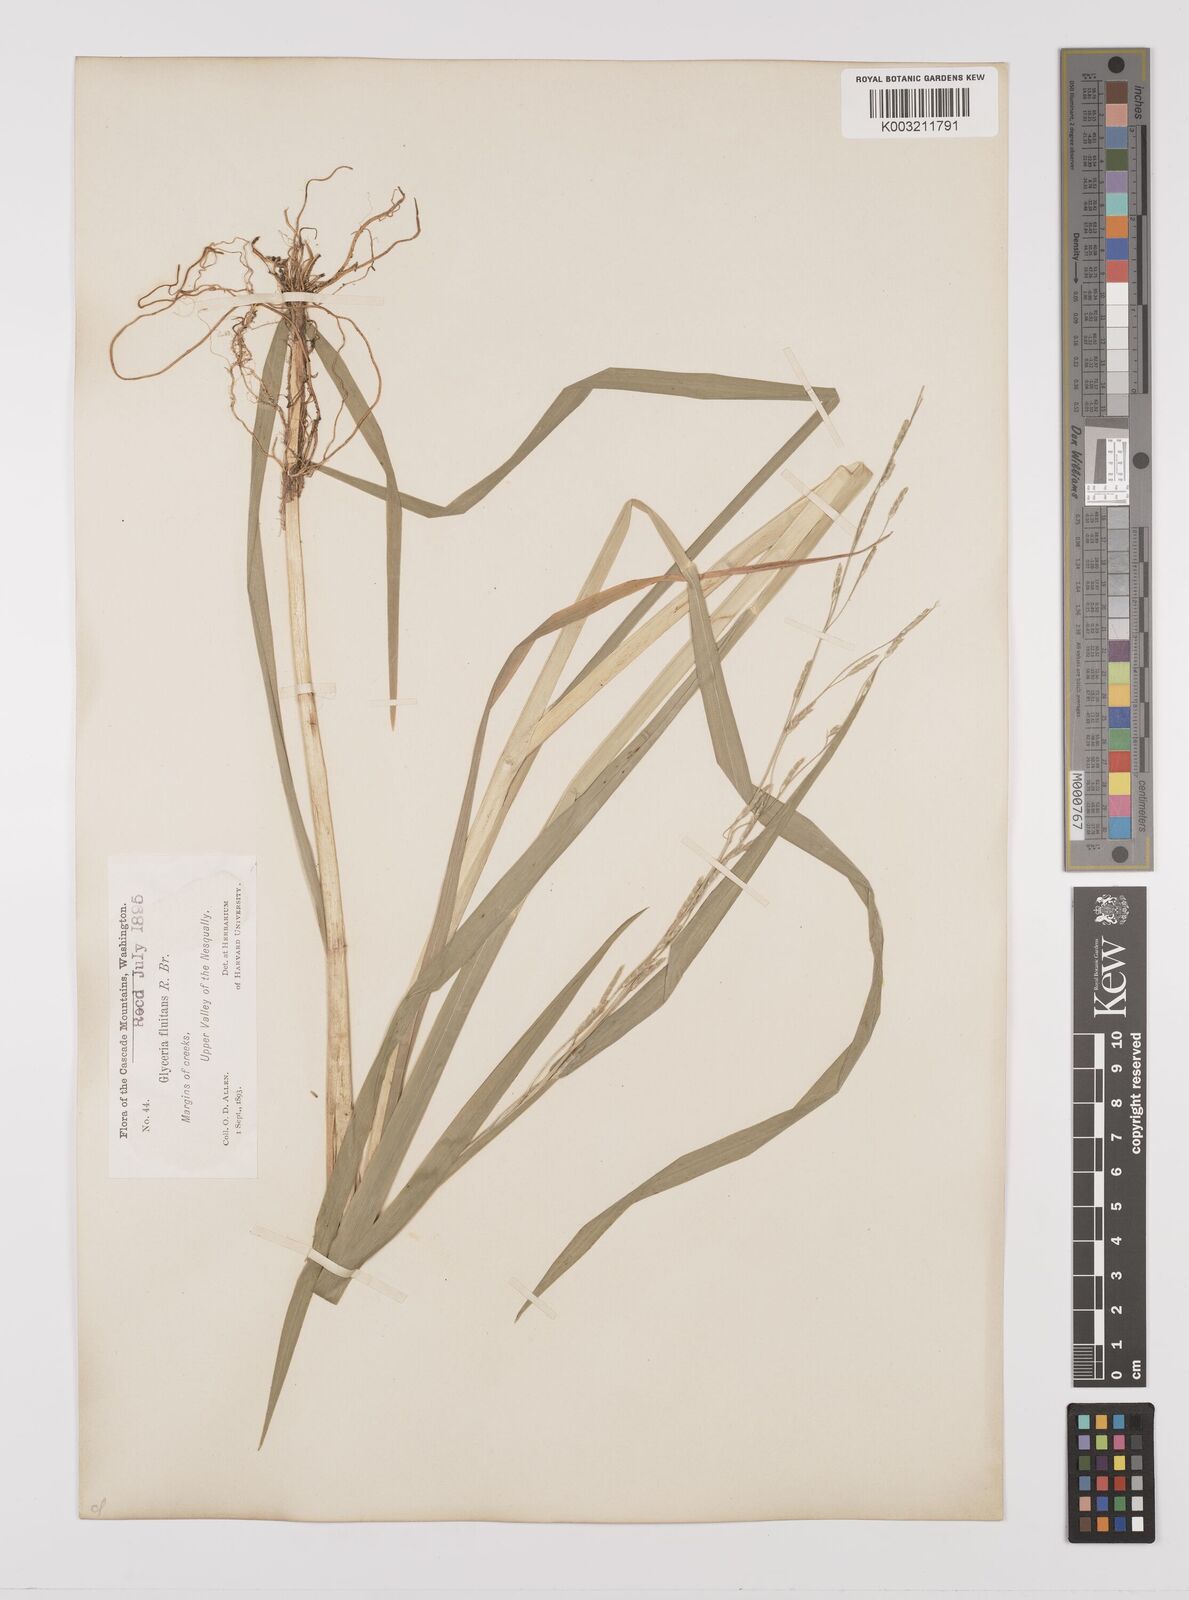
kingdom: Plantae
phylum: Tracheophyta
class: Liliopsida
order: Poales
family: Poaceae
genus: Glyceria
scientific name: Glyceria leptostachya
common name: Davy's mannagrass
